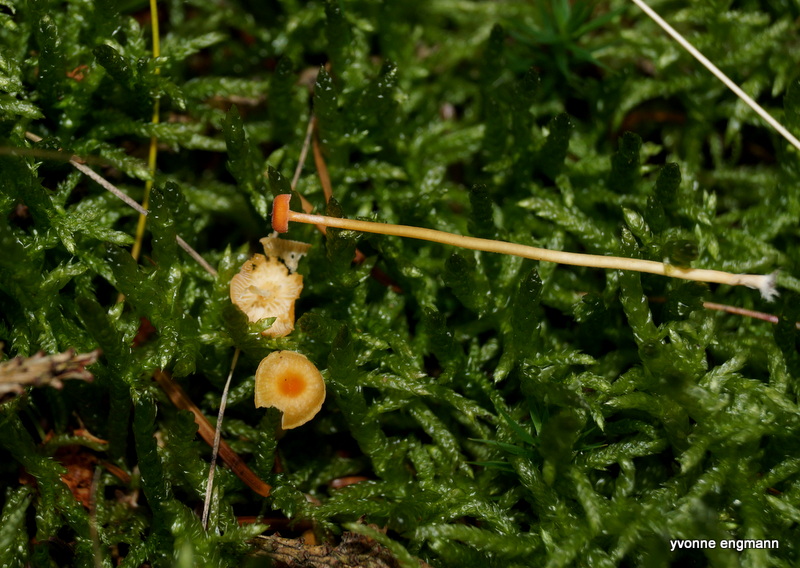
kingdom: Fungi
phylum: Basidiomycota
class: Agaricomycetes
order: Hymenochaetales
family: Rickenellaceae
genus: Rickenella
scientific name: Rickenella fibula
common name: orange mosnavlehat
